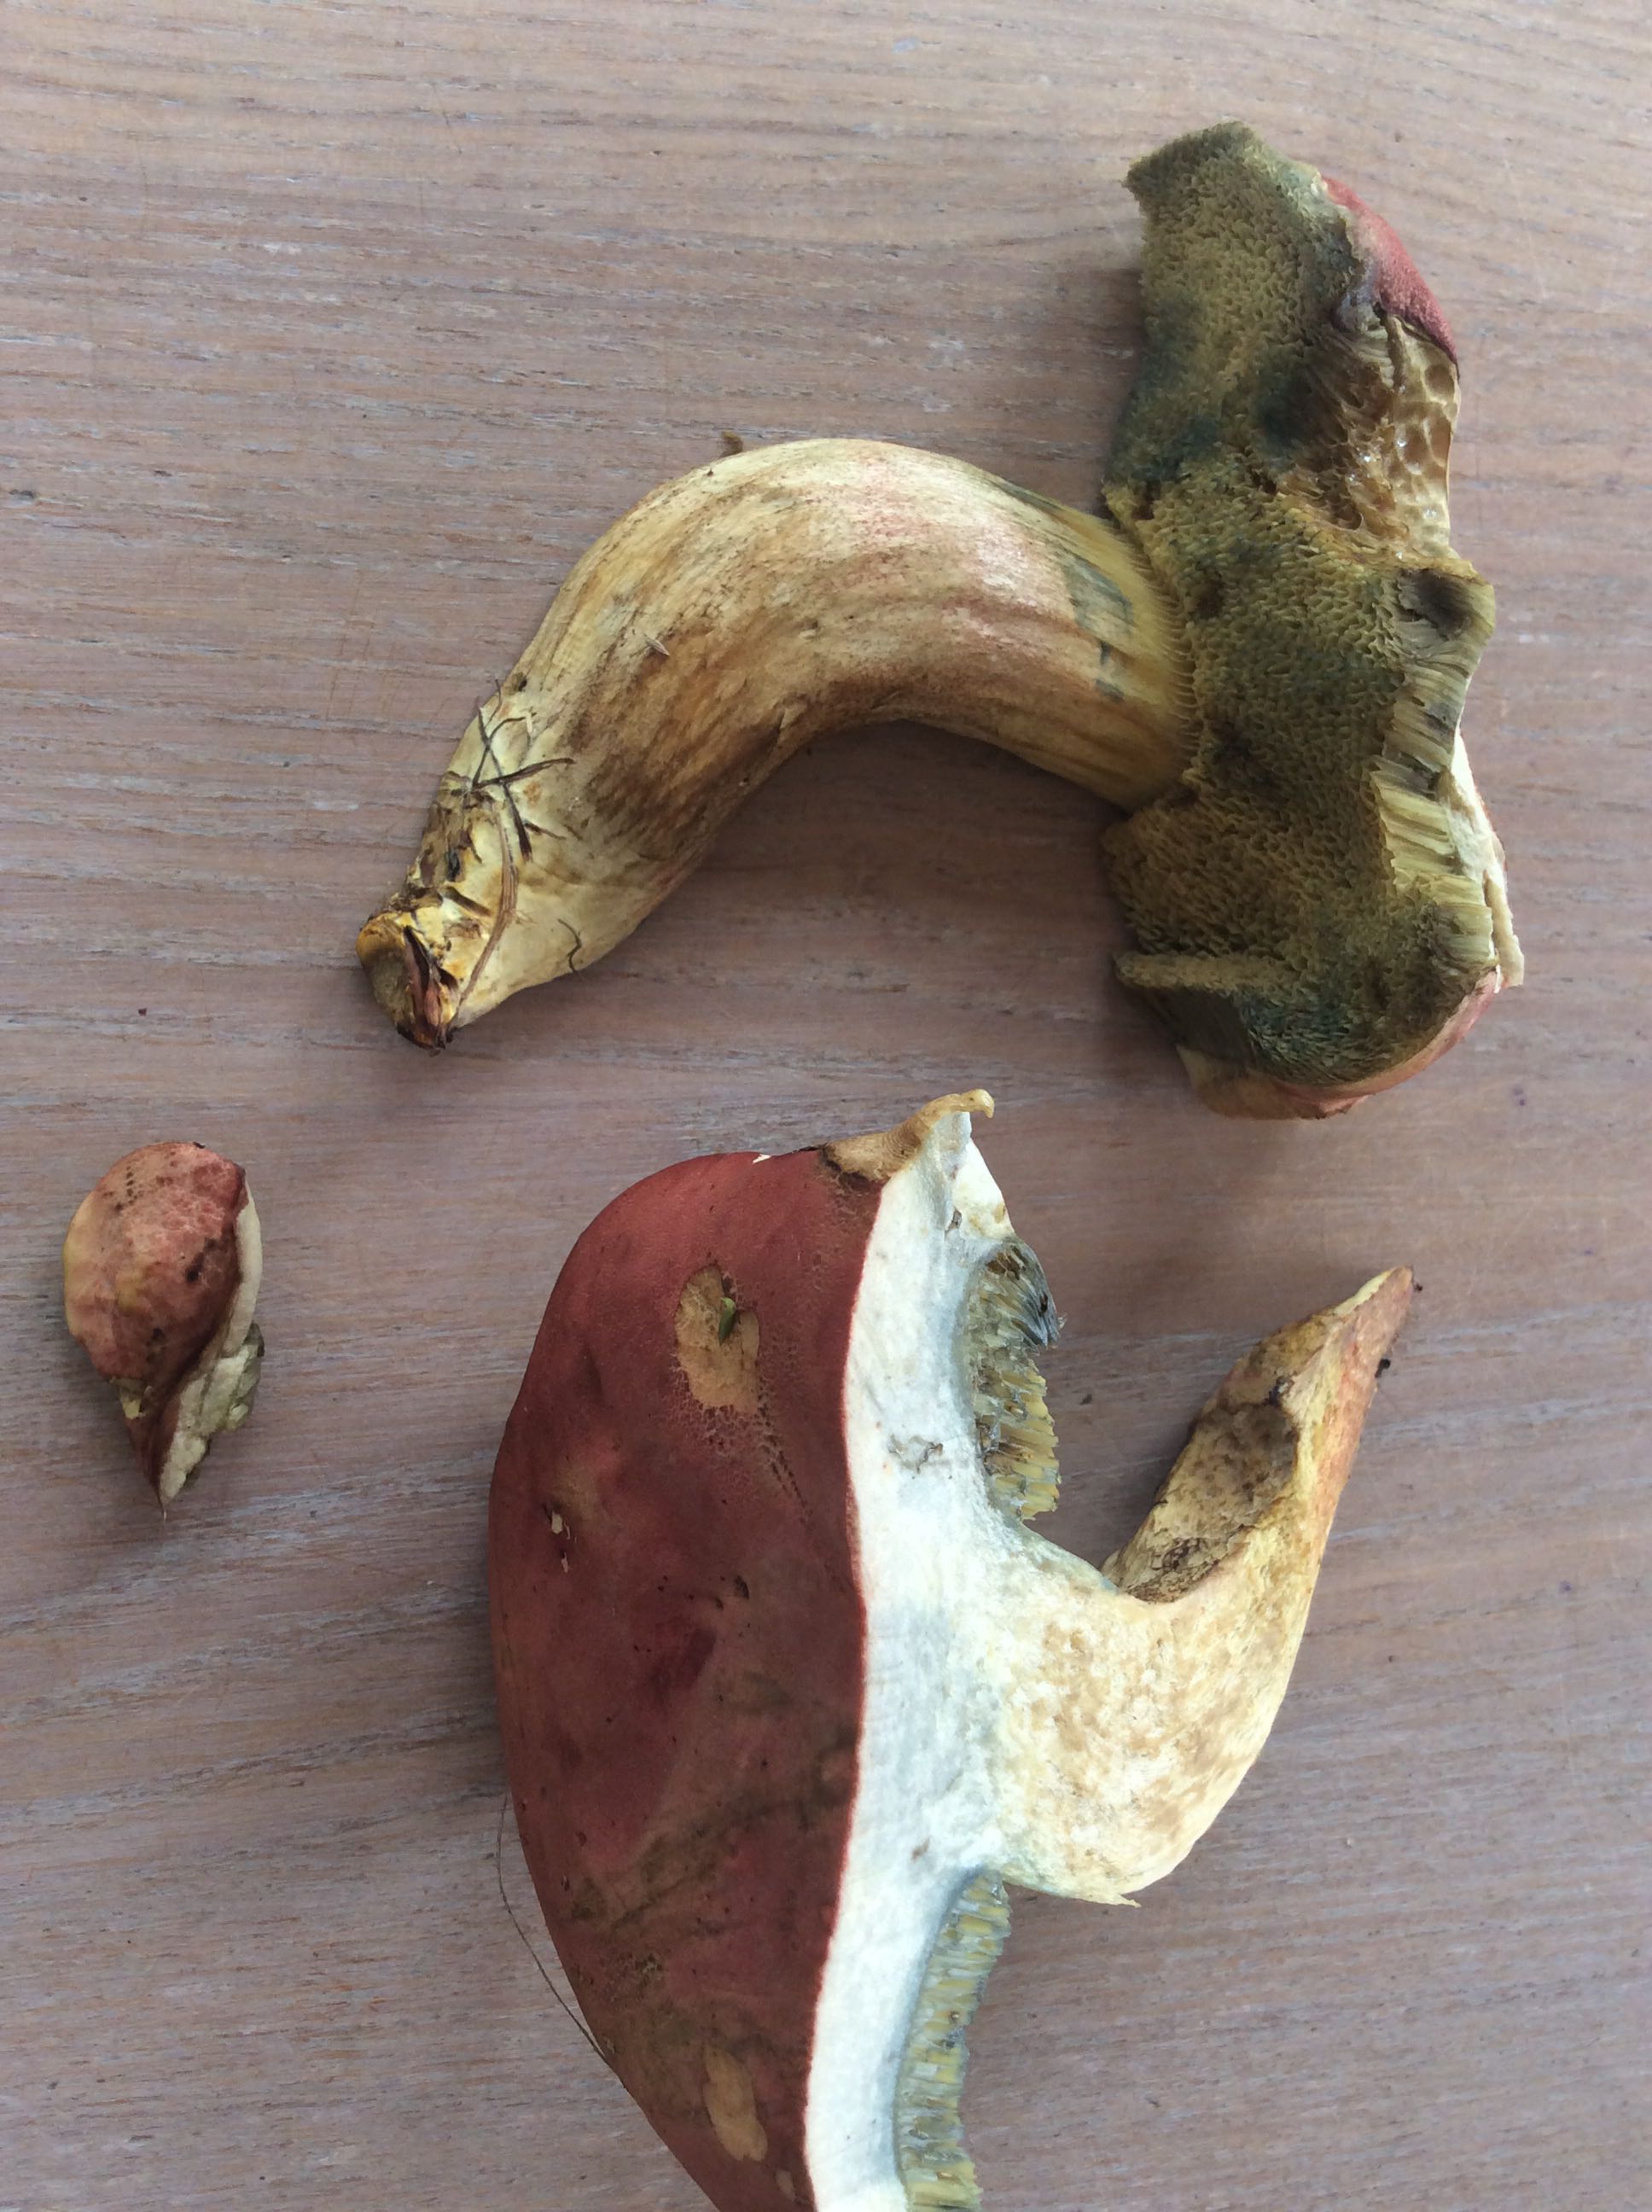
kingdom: Fungi
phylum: Basidiomycota
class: Agaricomycetes
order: Boletales
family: Boletaceae
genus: Imleria
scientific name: Imleria badia
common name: brunstokket rørhat
